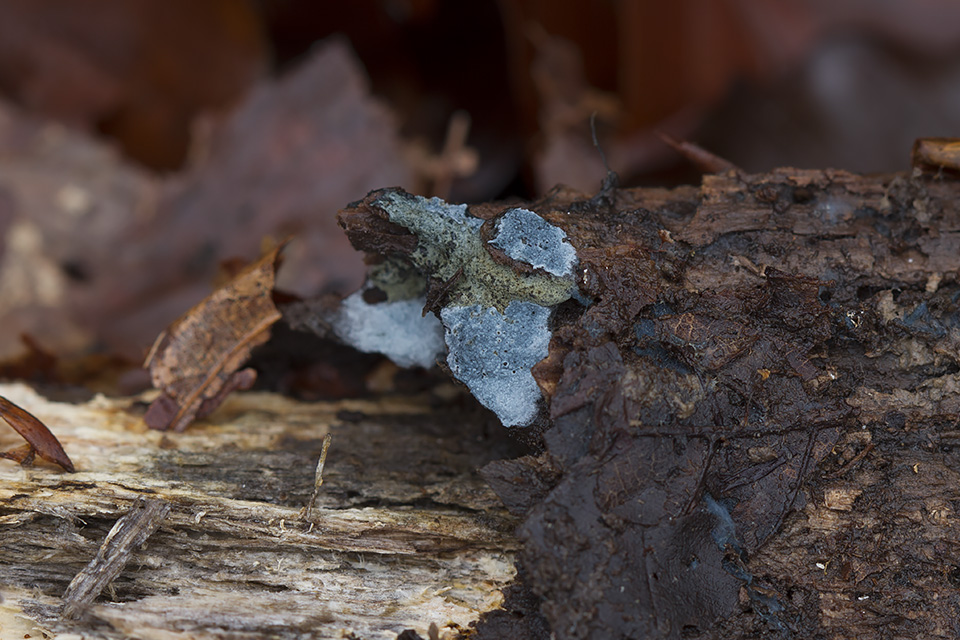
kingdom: Fungi
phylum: Basidiomycota
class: Agaricomycetes
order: Atheliales
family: Atheliaceae
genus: Byssocorticium
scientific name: Byssocorticium atrovirens
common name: blå førnehinde
